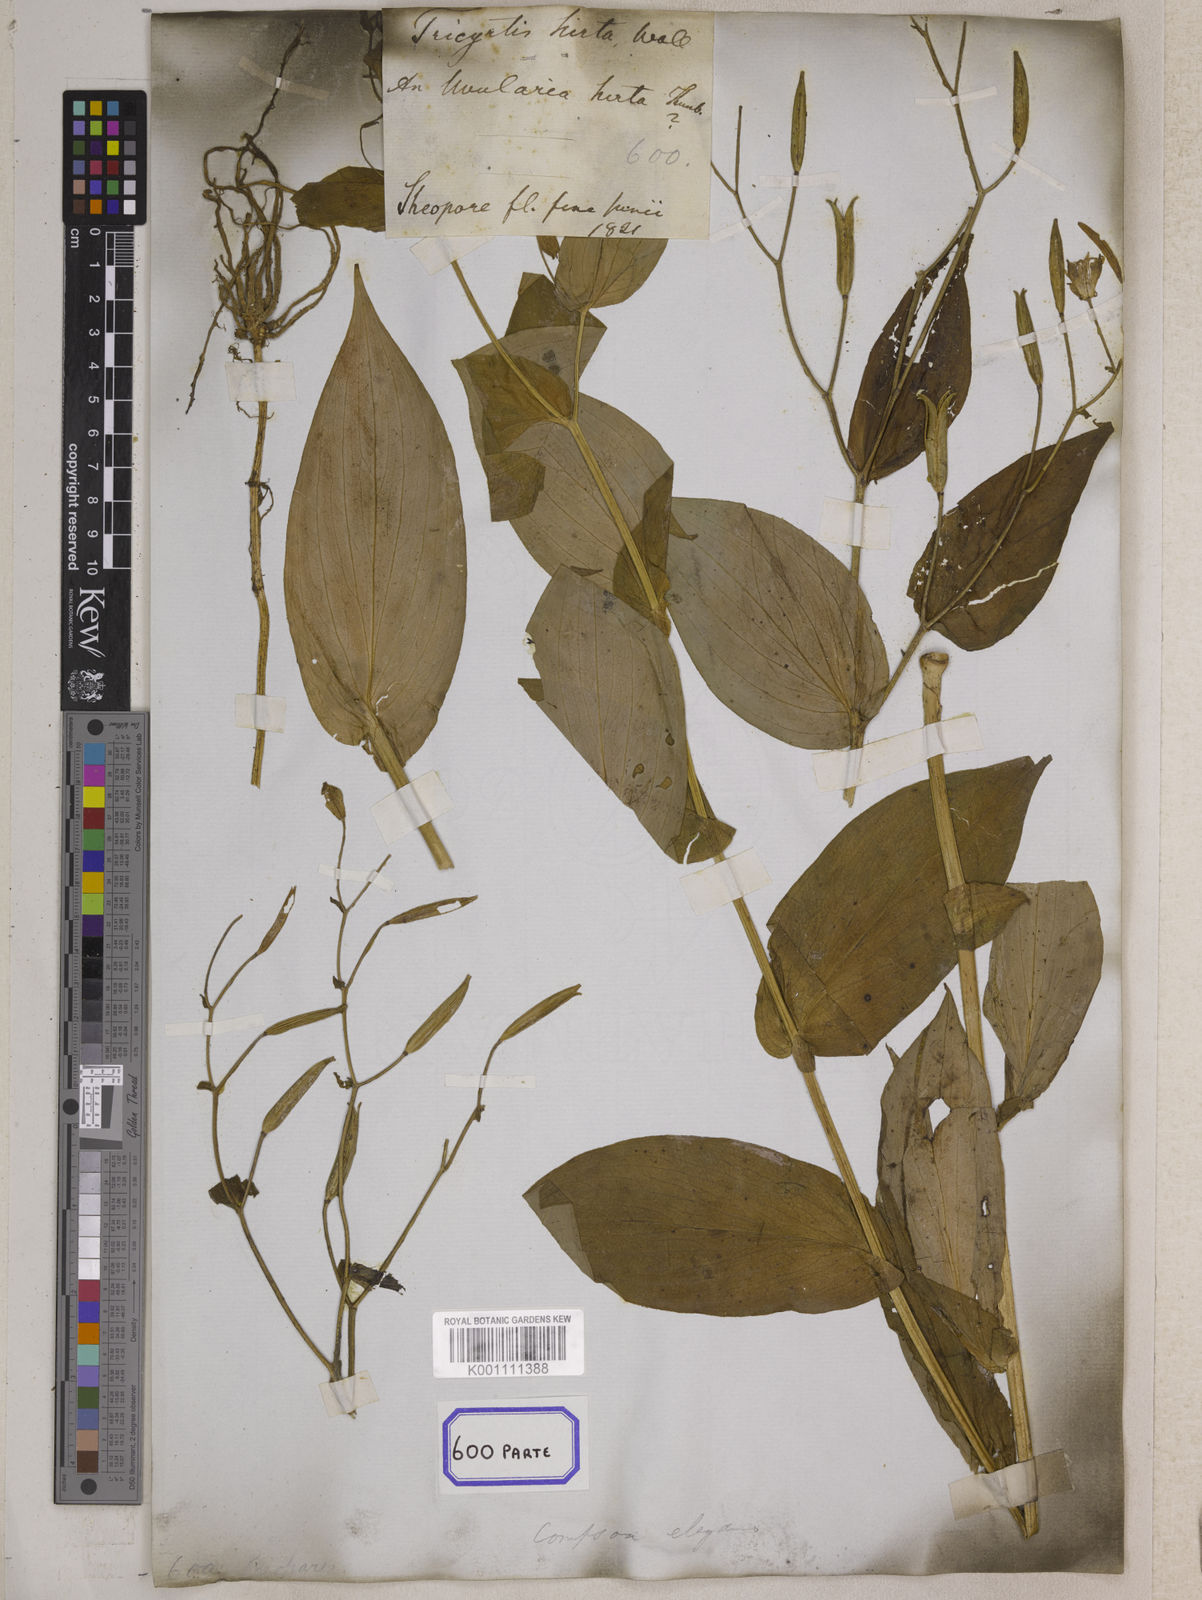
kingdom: Plantae
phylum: Tracheophyta
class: Liliopsida
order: Liliales
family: Liliaceae
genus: Tricyrtis
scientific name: Tricyrtis maculata
